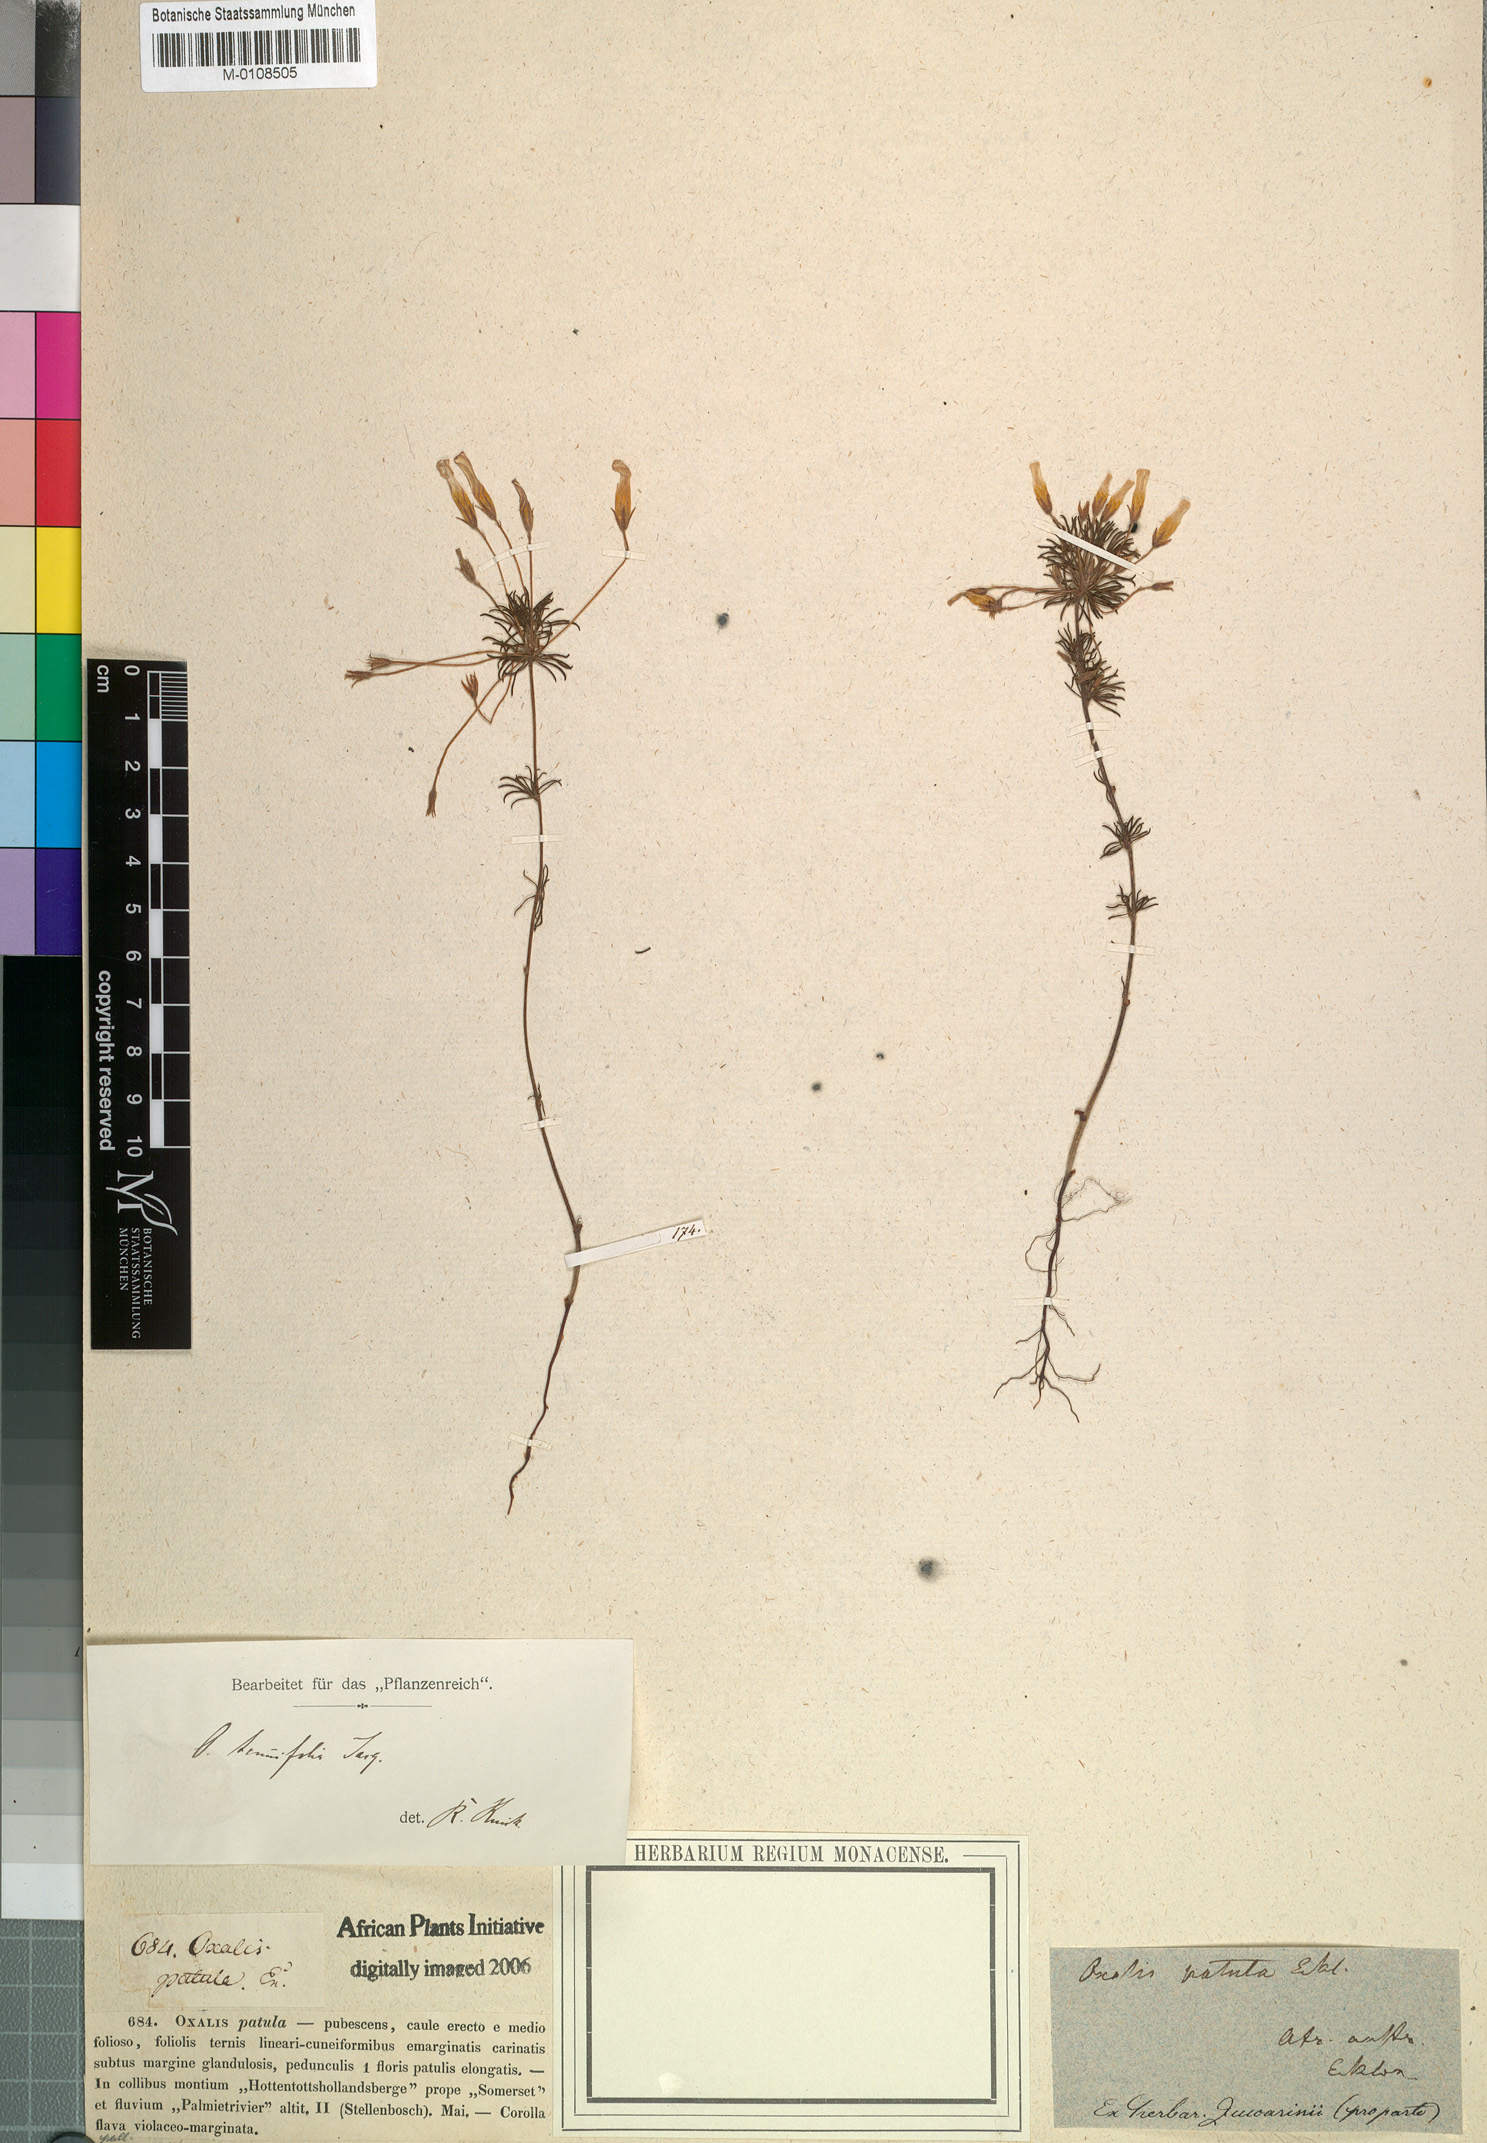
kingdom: Plantae
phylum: Tracheophyta
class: Magnoliopsida
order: Oxalidales
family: Oxalidaceae
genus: Oxalis
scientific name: Oxalis tenuifolia
